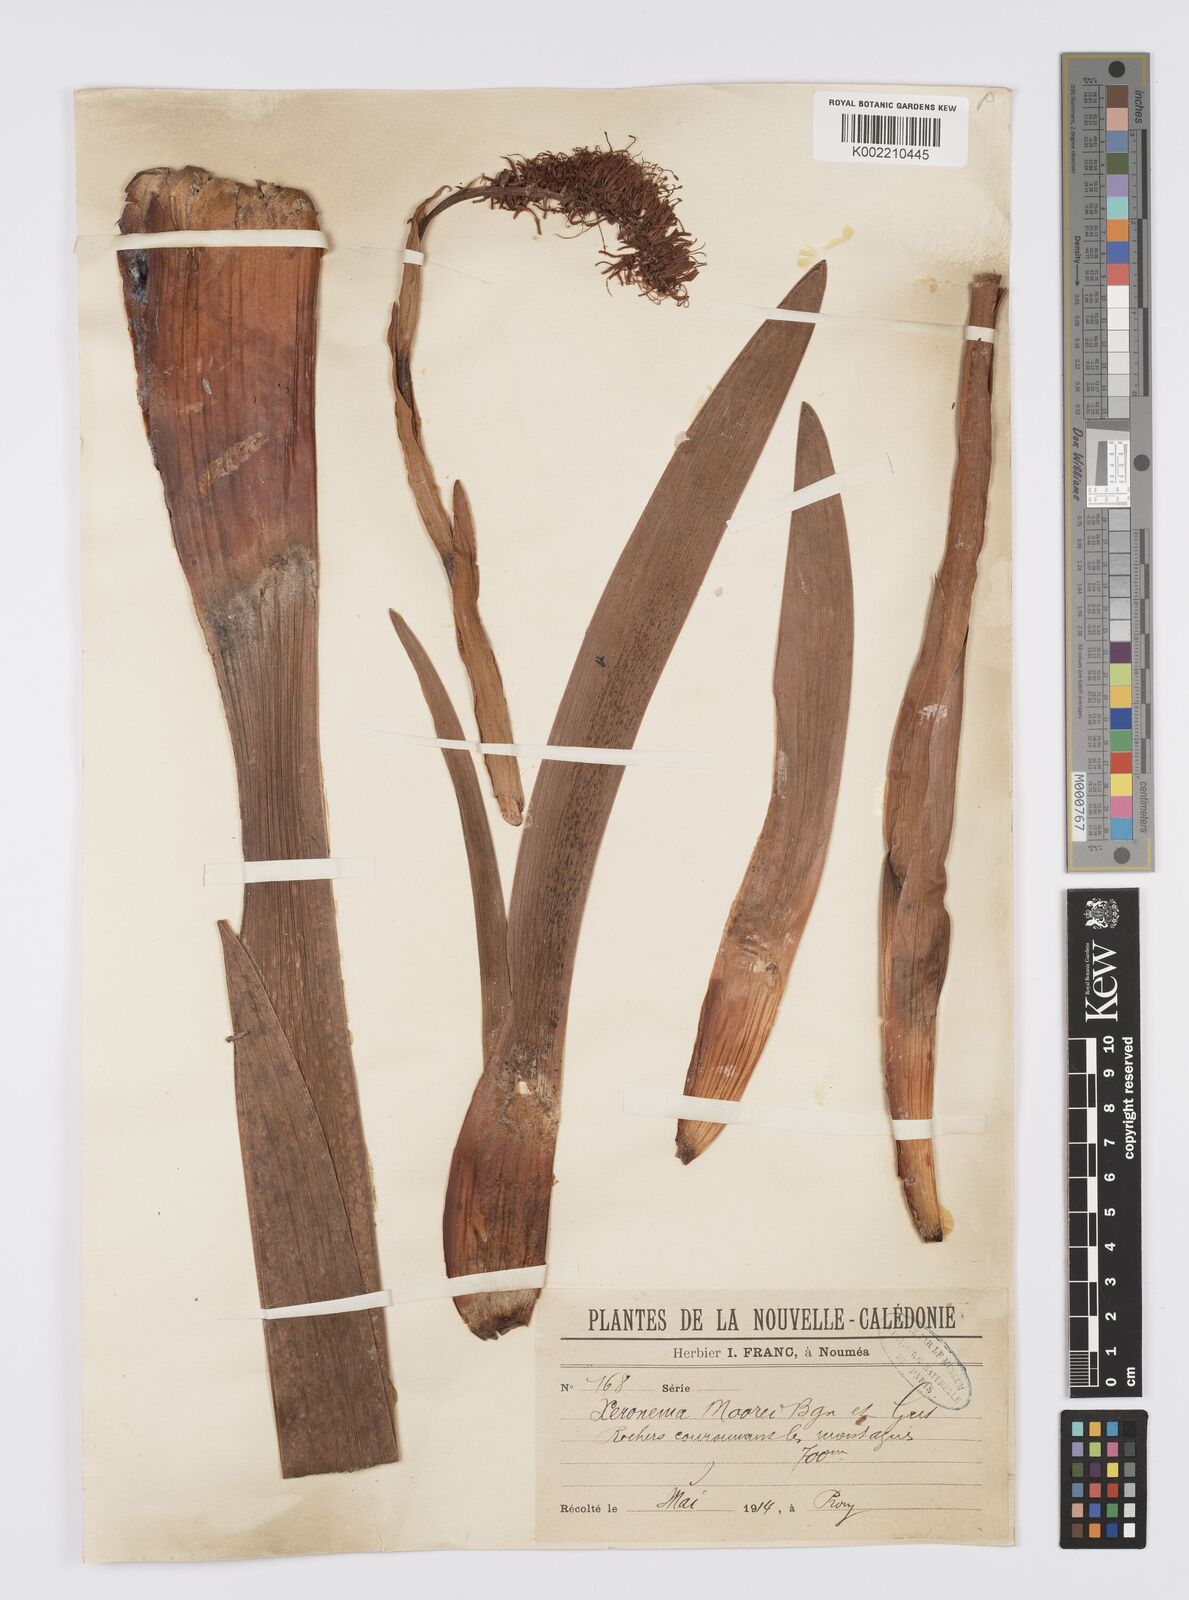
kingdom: Plantae
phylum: Tracheophyta
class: Liliopsida
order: Asparagales
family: Xeronemataceae
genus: Xeronema
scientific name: Xeronema moorei
